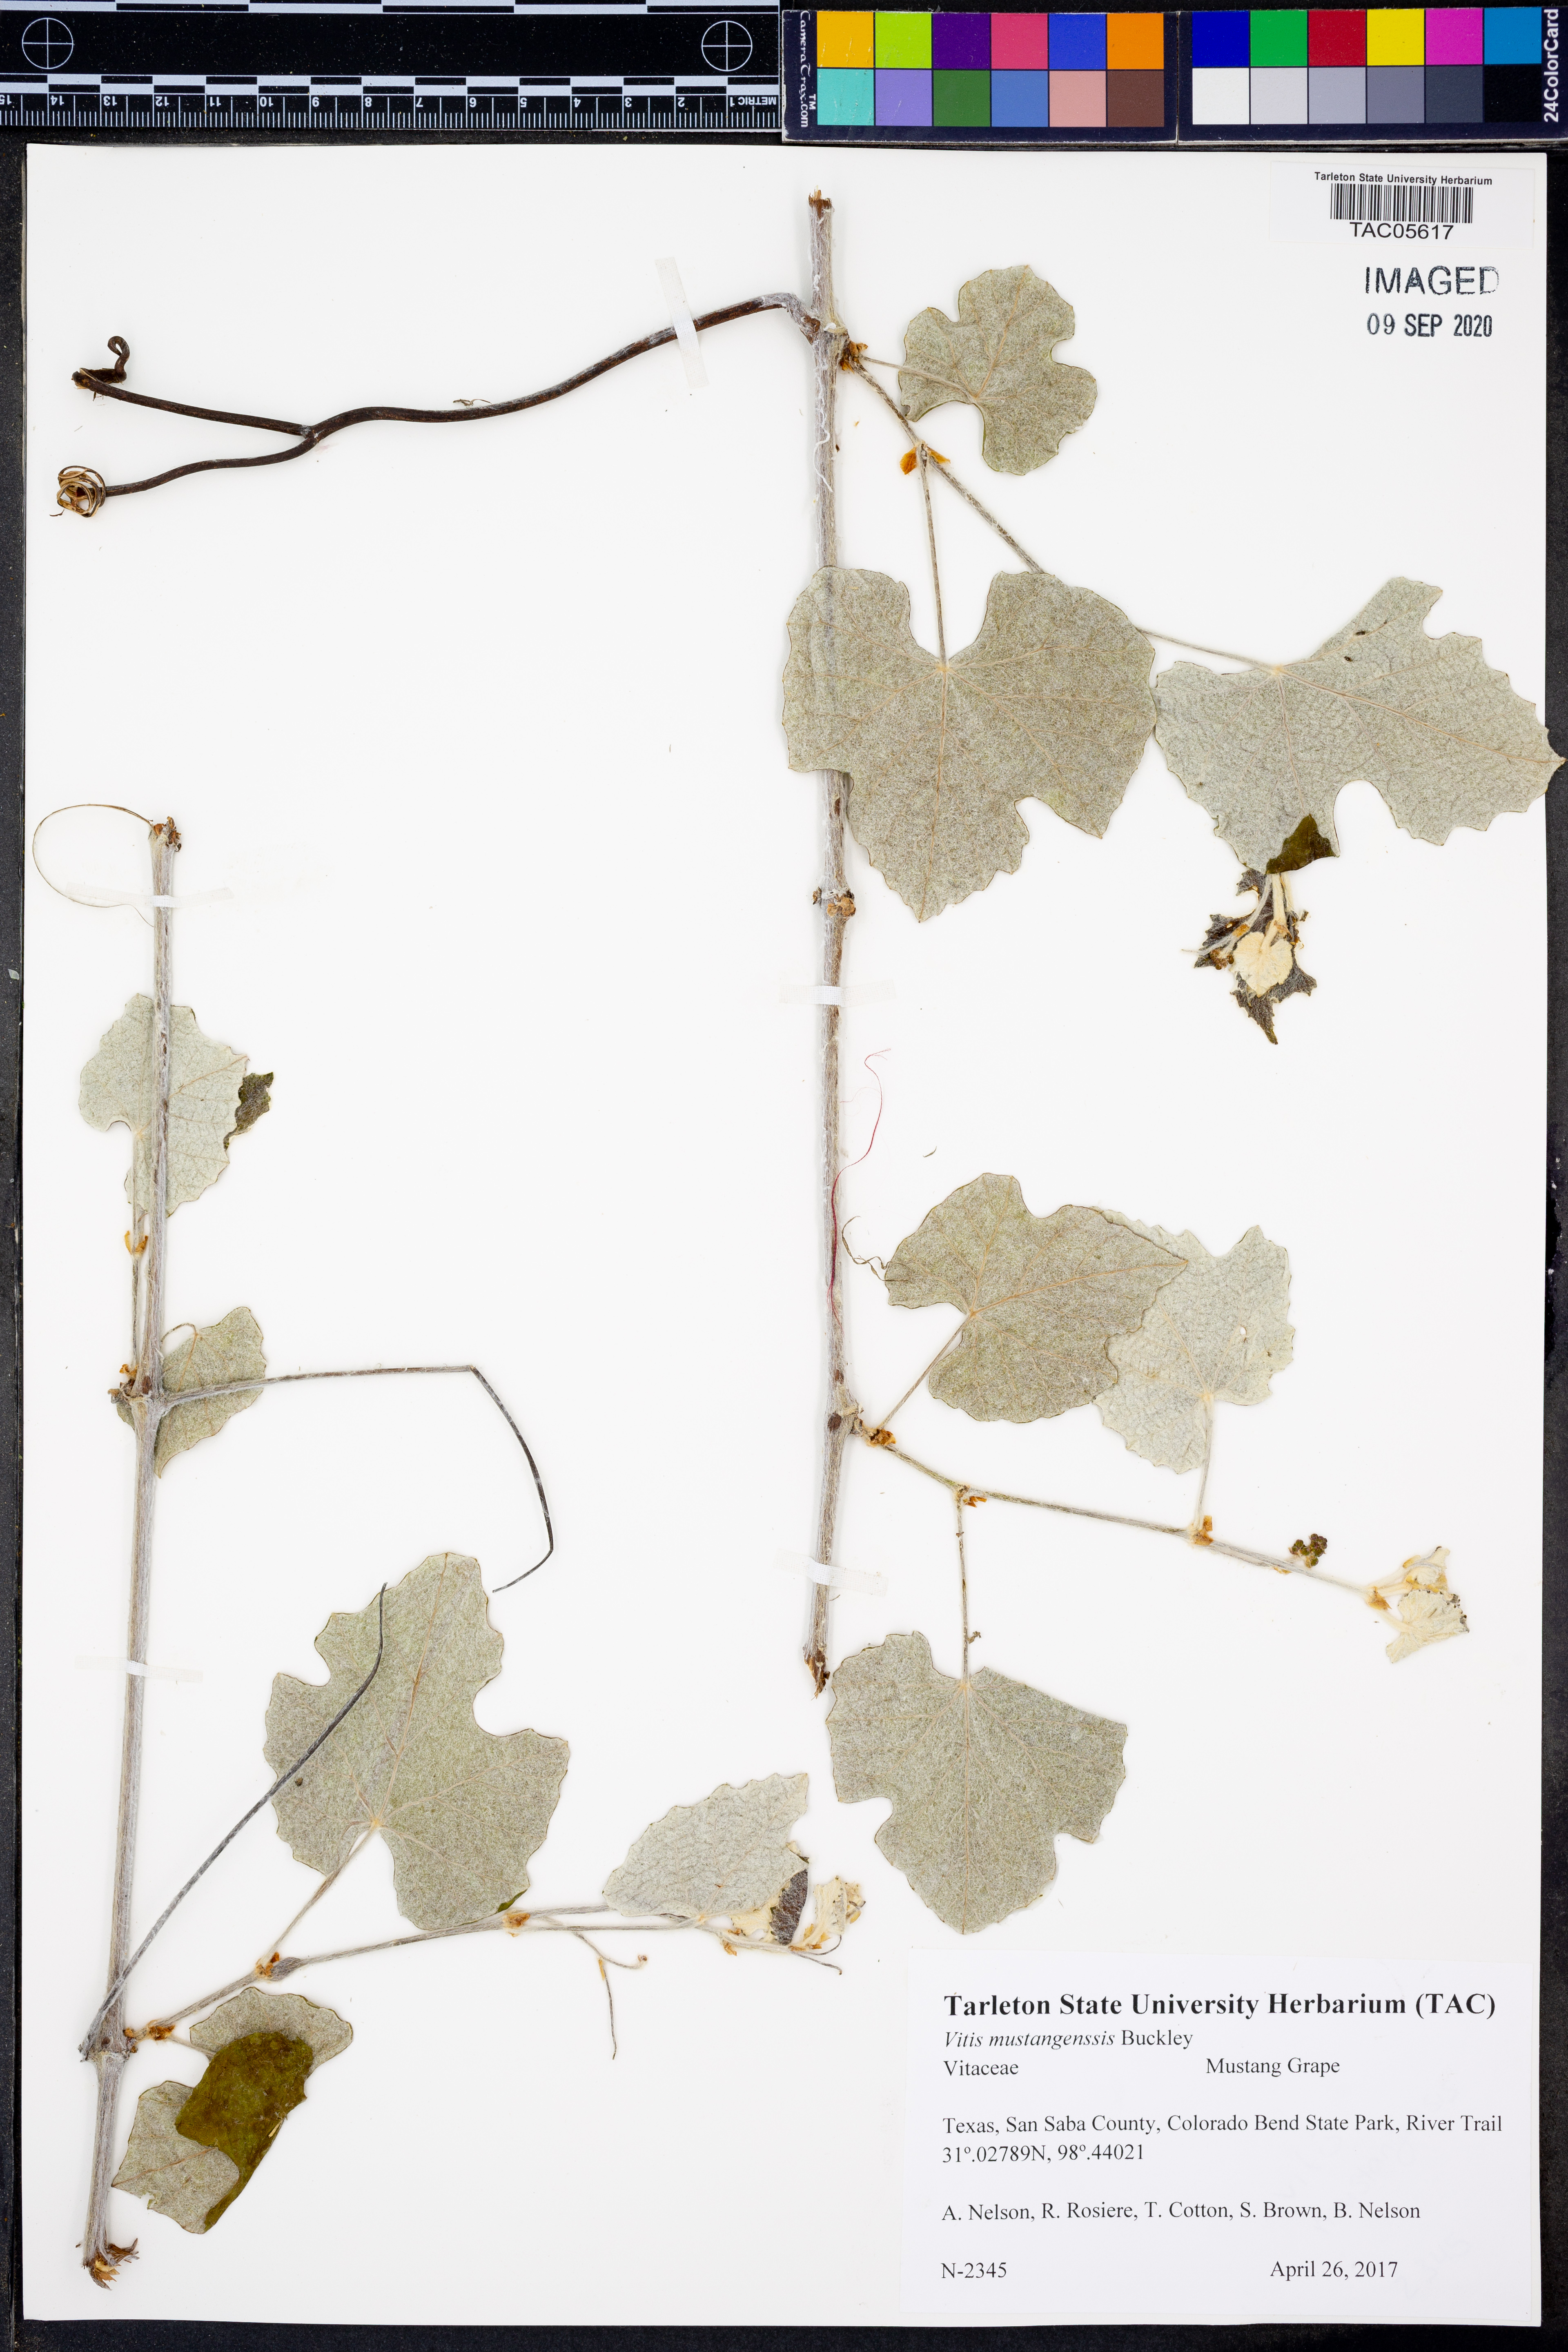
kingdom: Plantae
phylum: Tracheophyta
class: Magnoliopsida
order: Vitales
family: Vitaceae
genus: Vitis
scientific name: Vitis mustangensis
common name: Mustang grape
